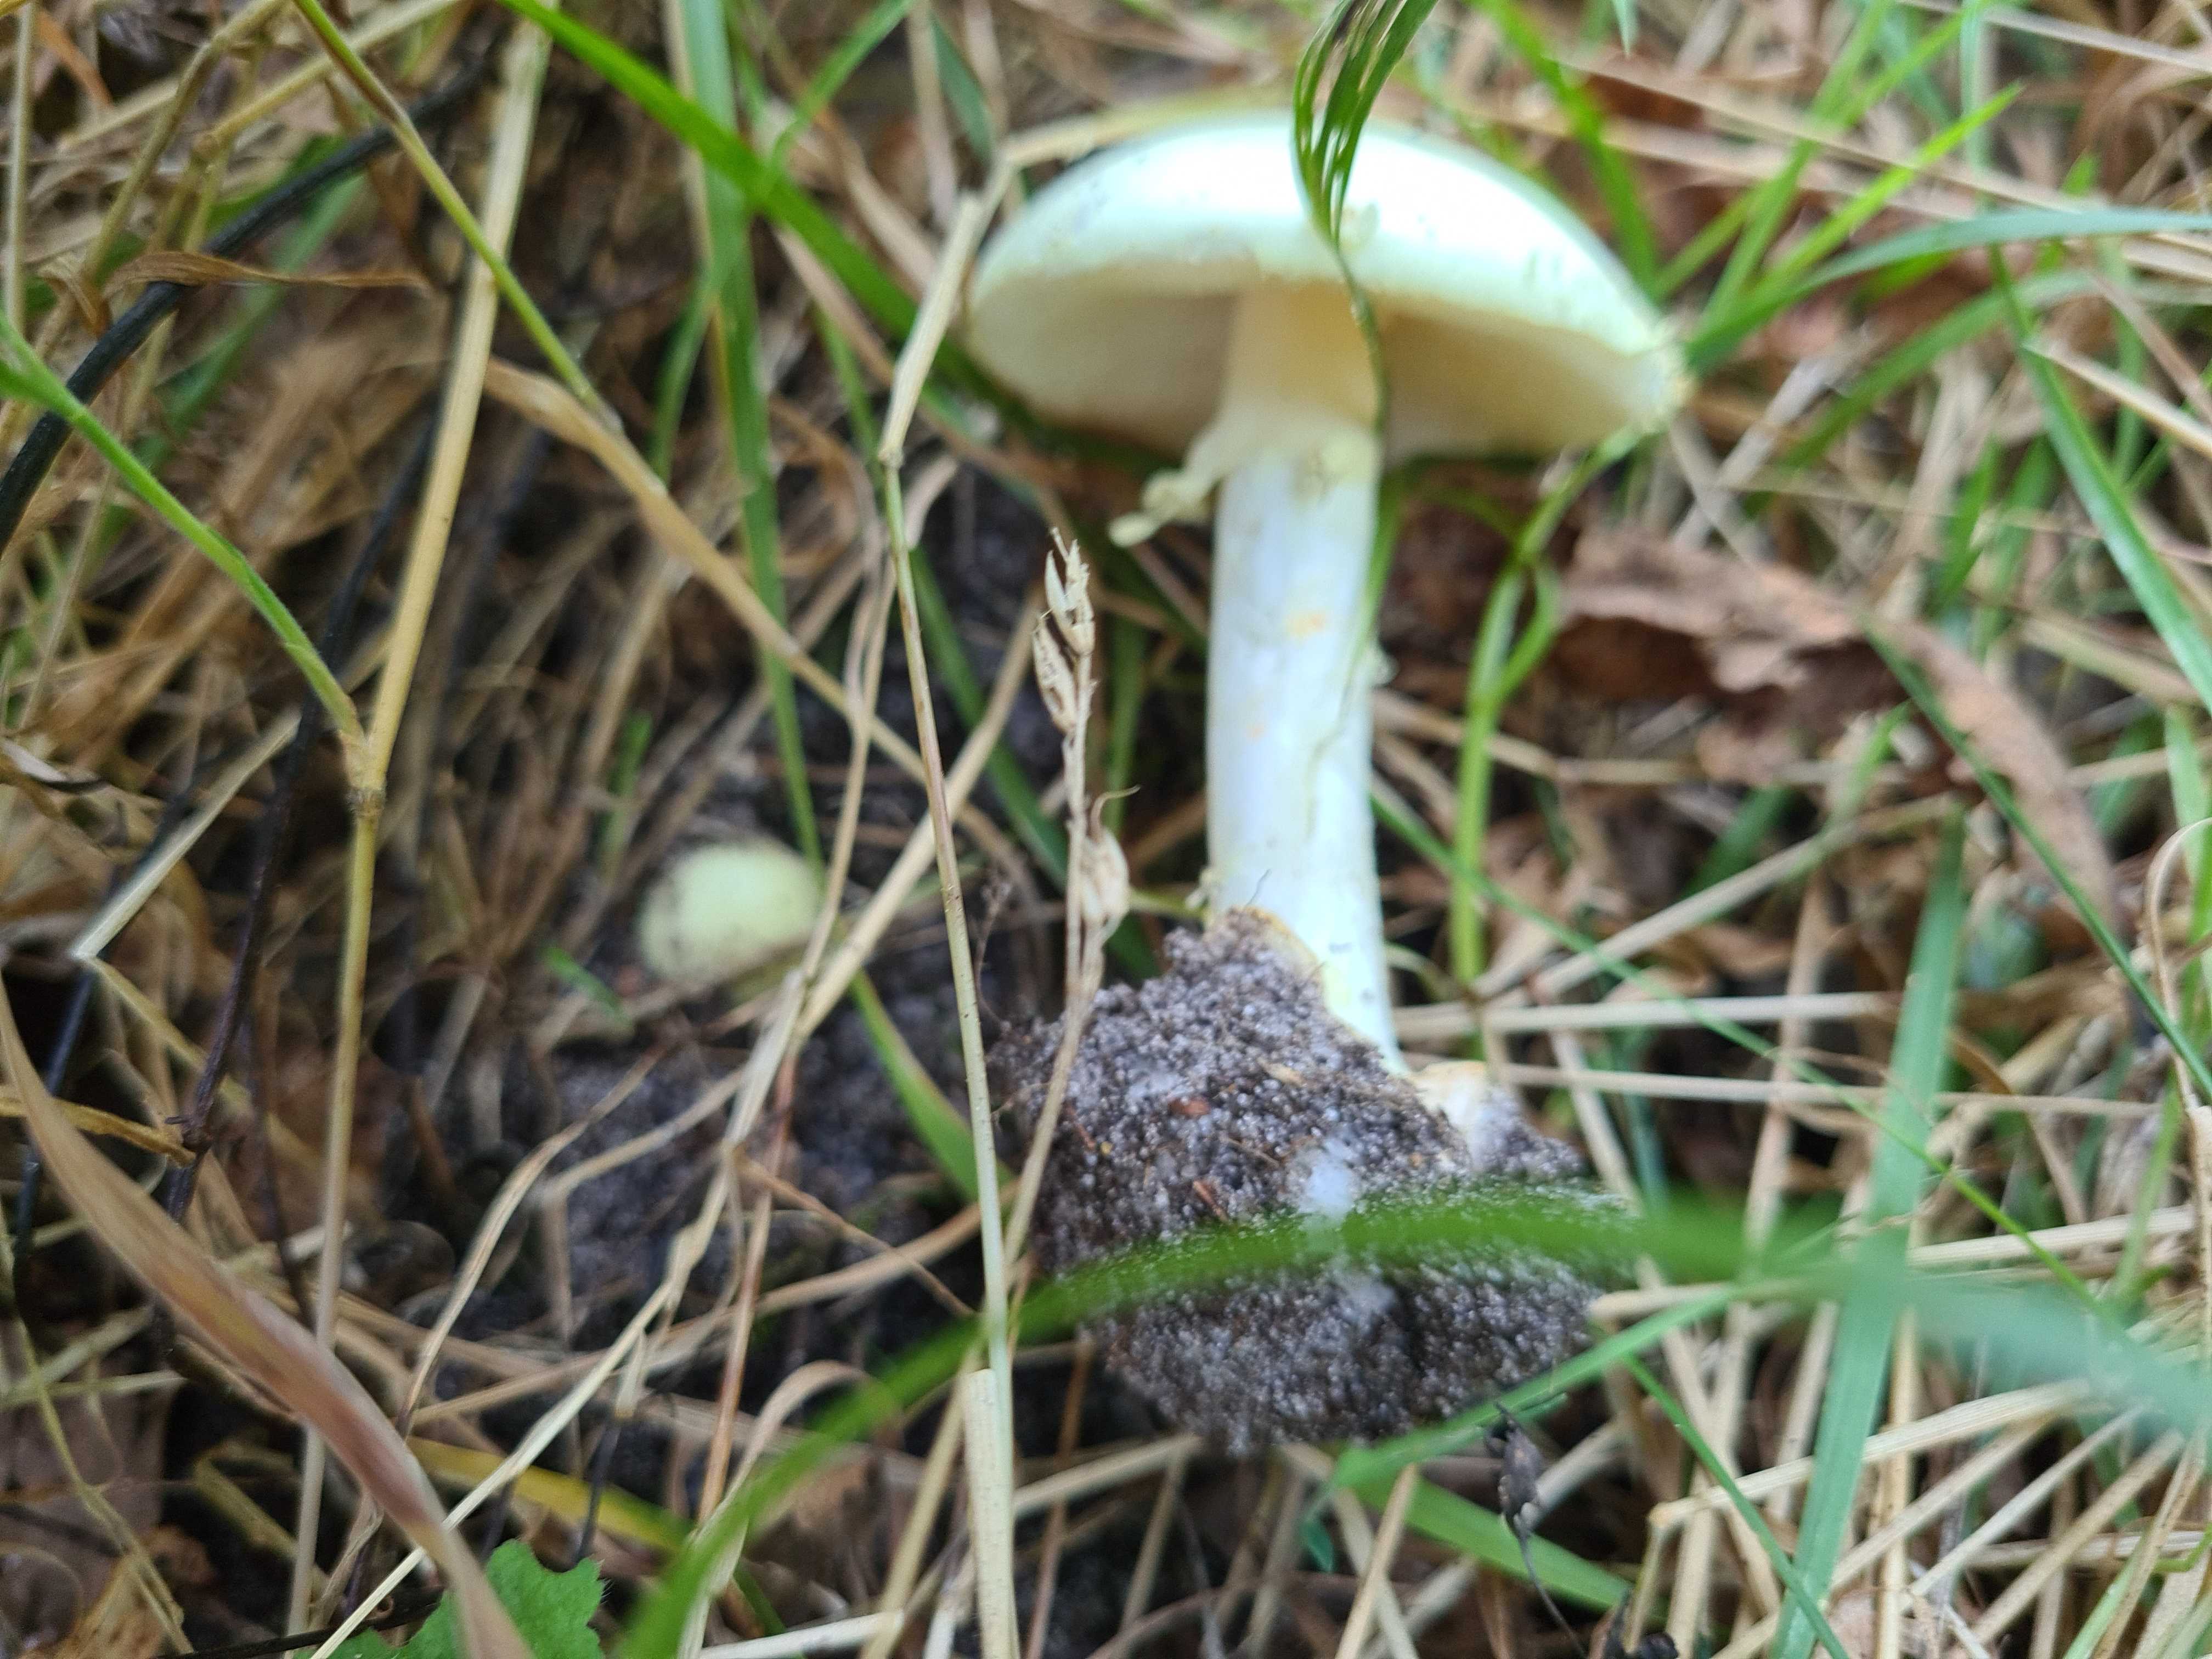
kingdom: Fungi
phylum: Basidiomycota
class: Agaricomycetes
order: Agaricales
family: Amanitaceae
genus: Amanita
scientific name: Amanita citrina
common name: kugleknoldet fluesvamp
